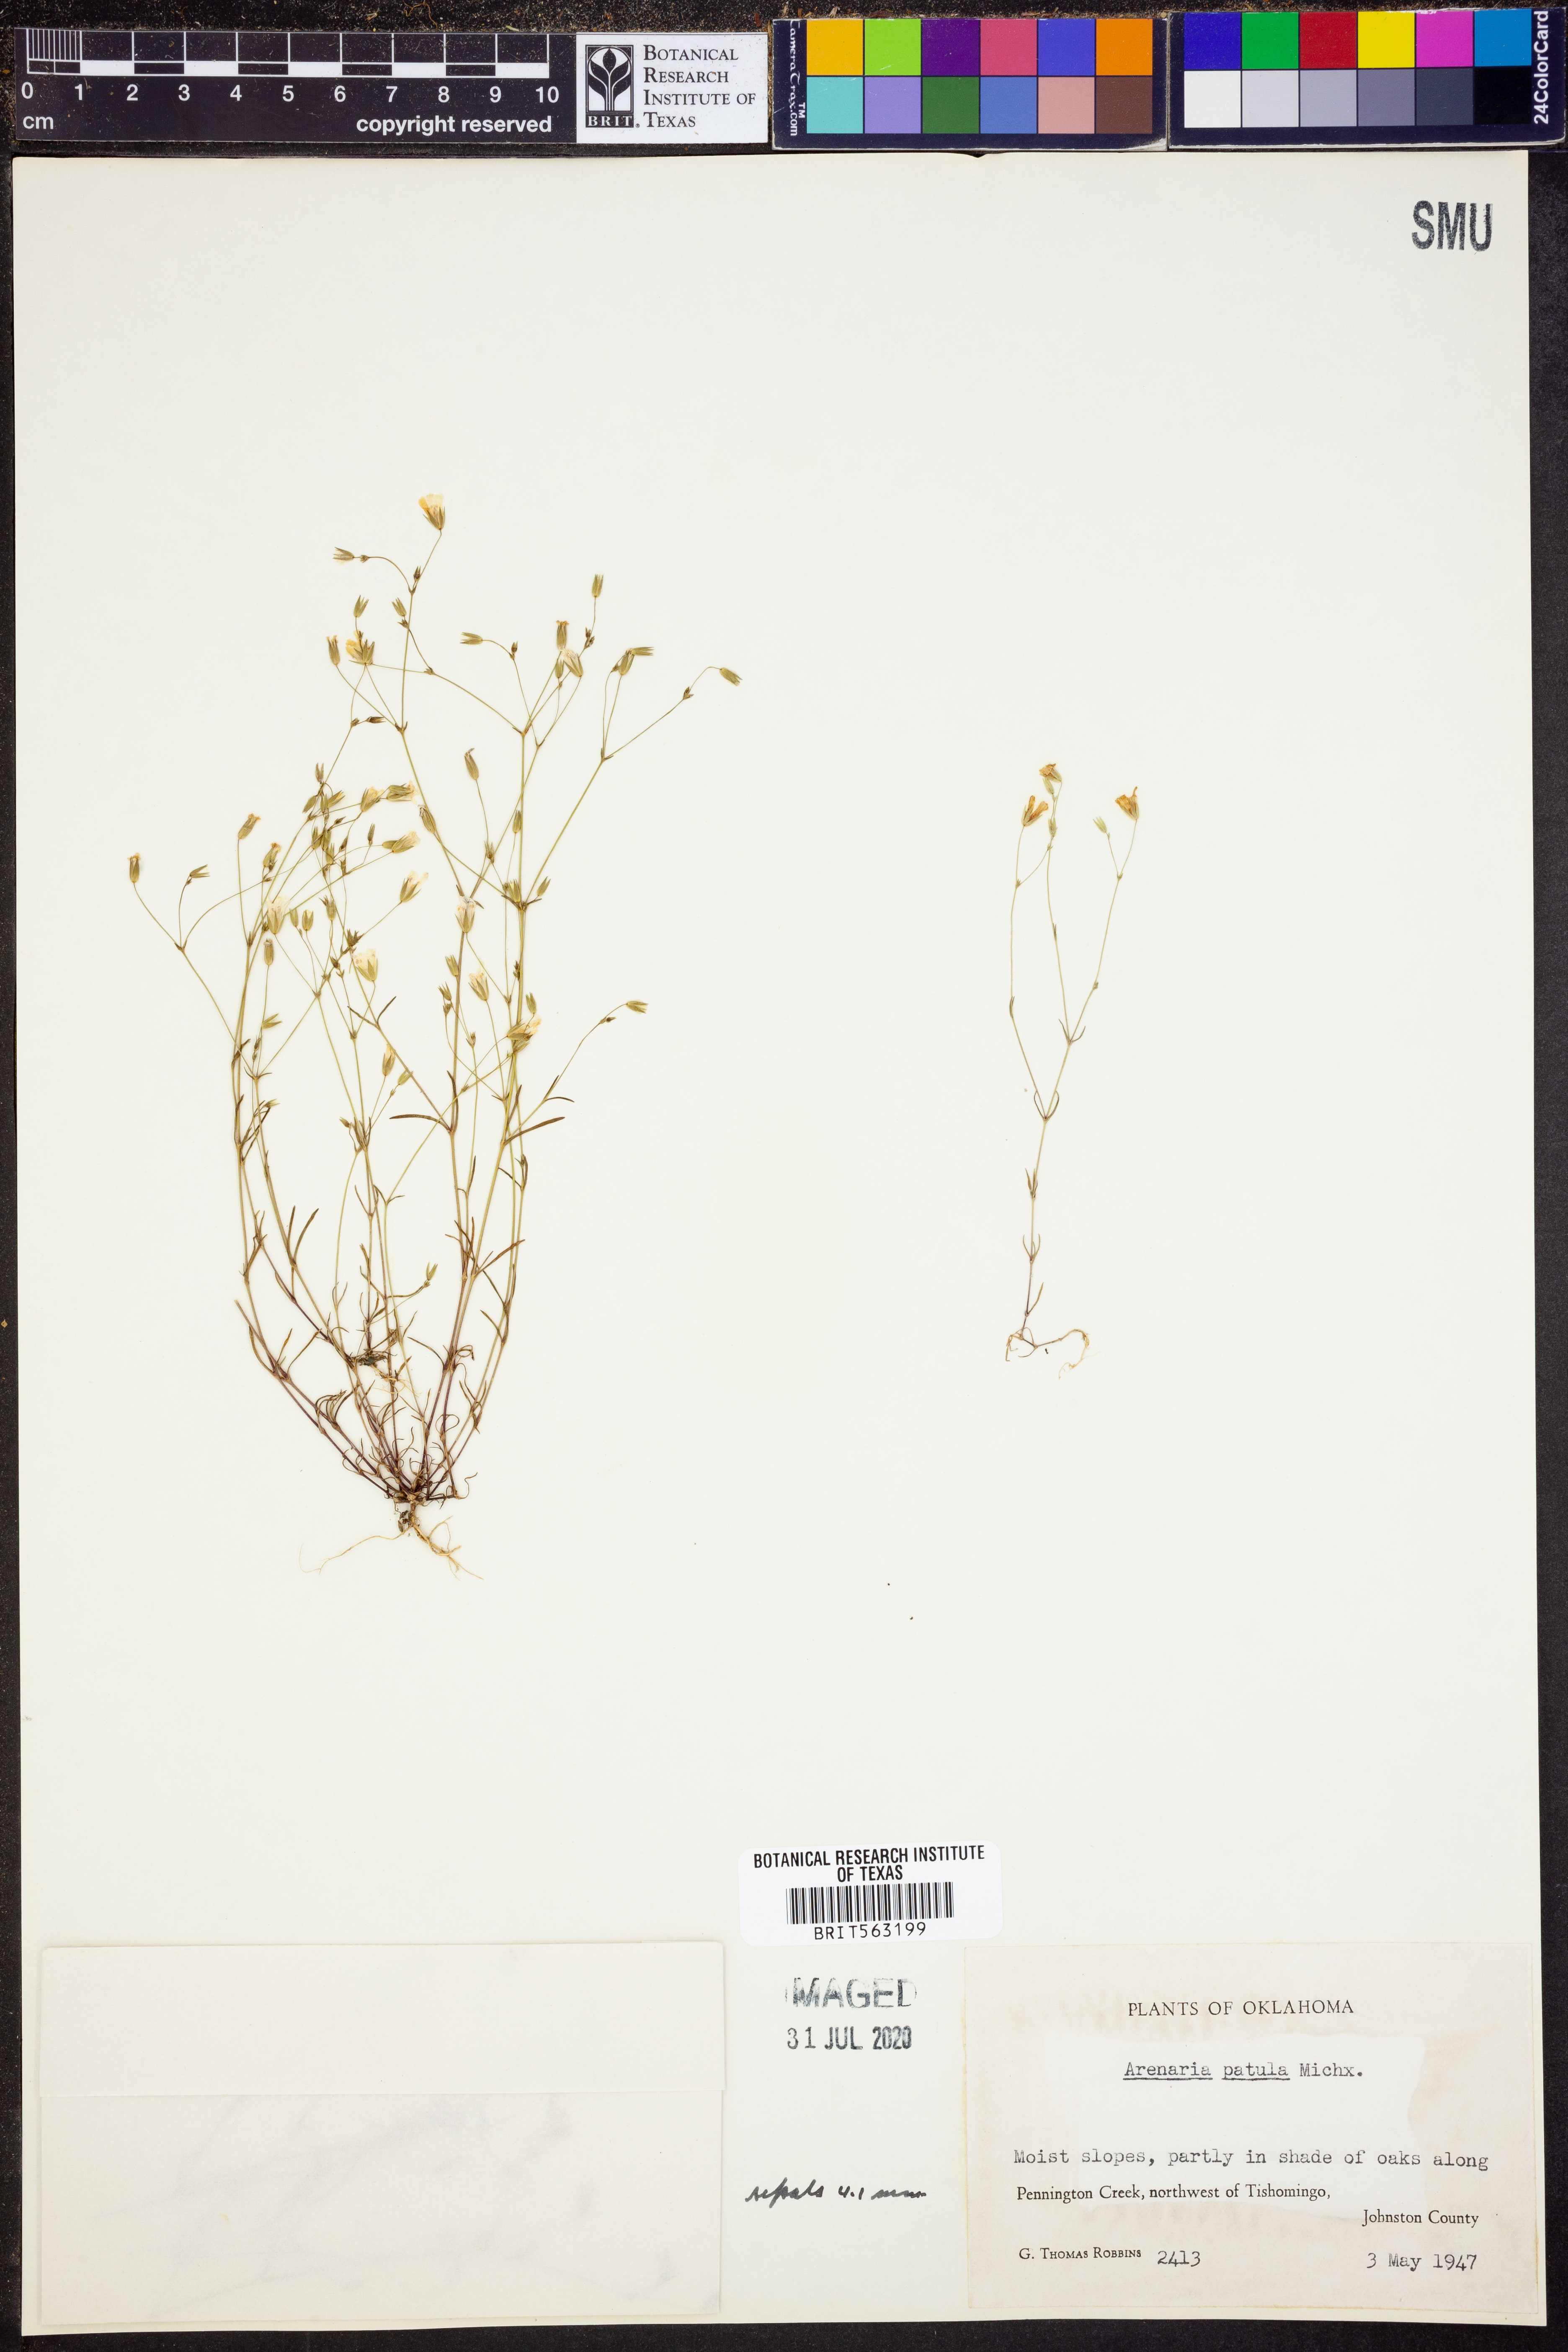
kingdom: Plantae
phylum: Tracheophyta
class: Magnoliopsida
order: Caryophyllales
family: Caryophyllaceae
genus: Mononeuria
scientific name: Mononeuria patula
